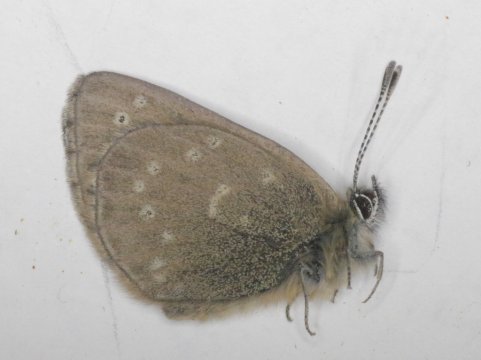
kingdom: Animalia
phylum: Arthropoda
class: Insecta
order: Lepidoptera
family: Lycaenidae
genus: Glaucopsyche
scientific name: Glaucopsyche lygdamus
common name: Silvery Blue
